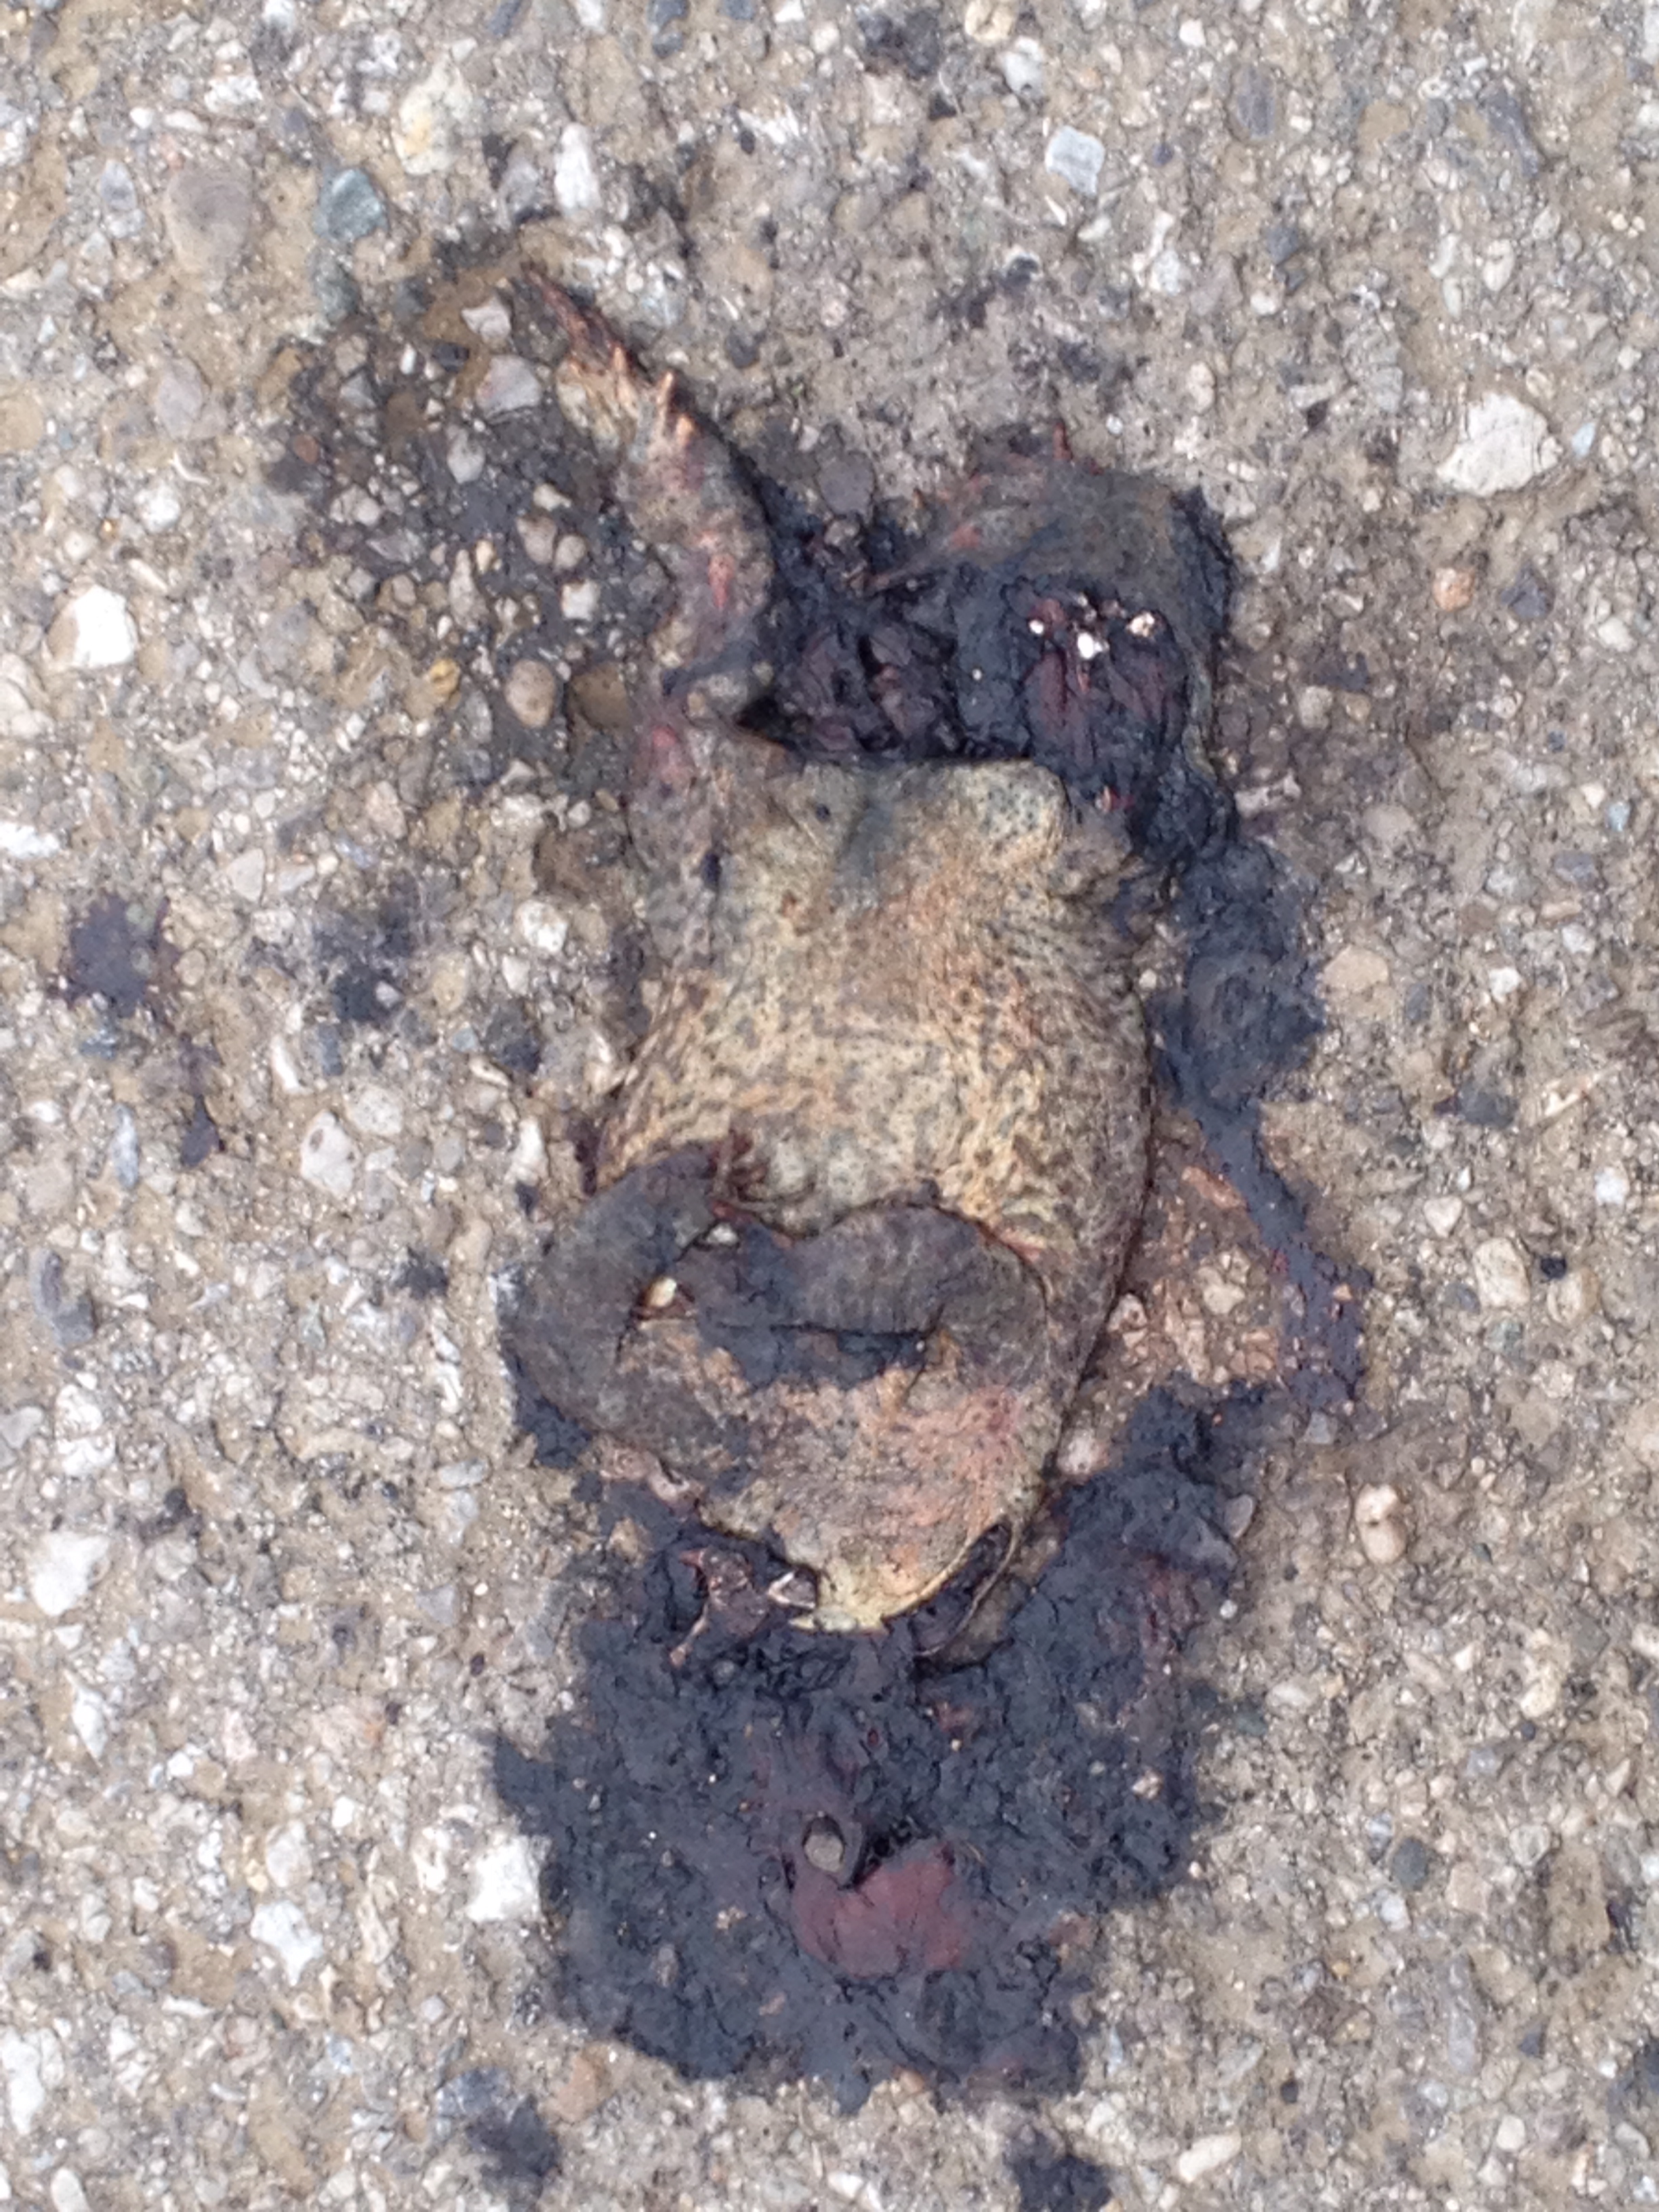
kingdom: Animalia
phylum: Chordata
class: Amphibia
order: Anura
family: Bufonidae
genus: Bufo
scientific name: Bufo bufo
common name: Common toad
